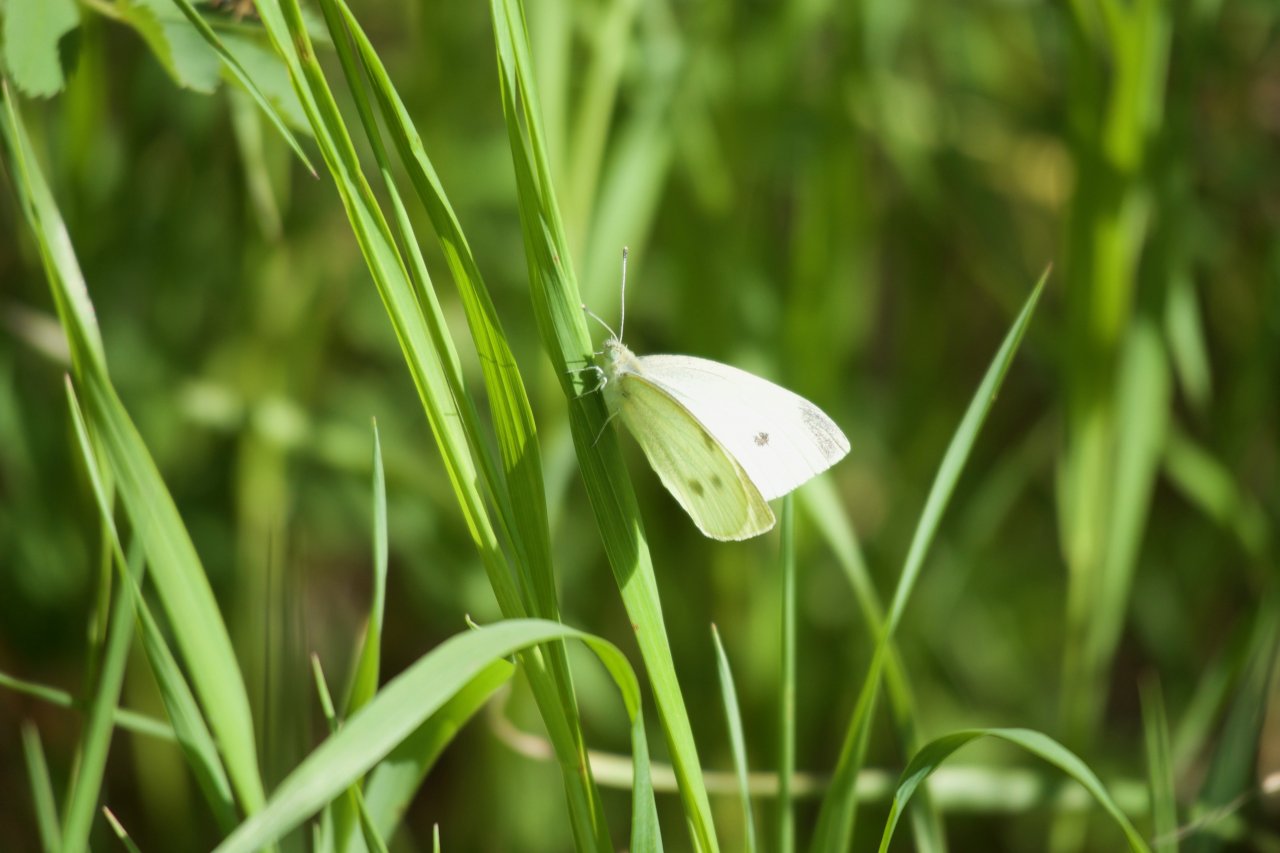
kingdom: Animalia
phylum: Arthropoda
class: Insecta
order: Lepidoptera
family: Pieridae
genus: Pieris
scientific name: Pieris rapae
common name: Cabbage White
